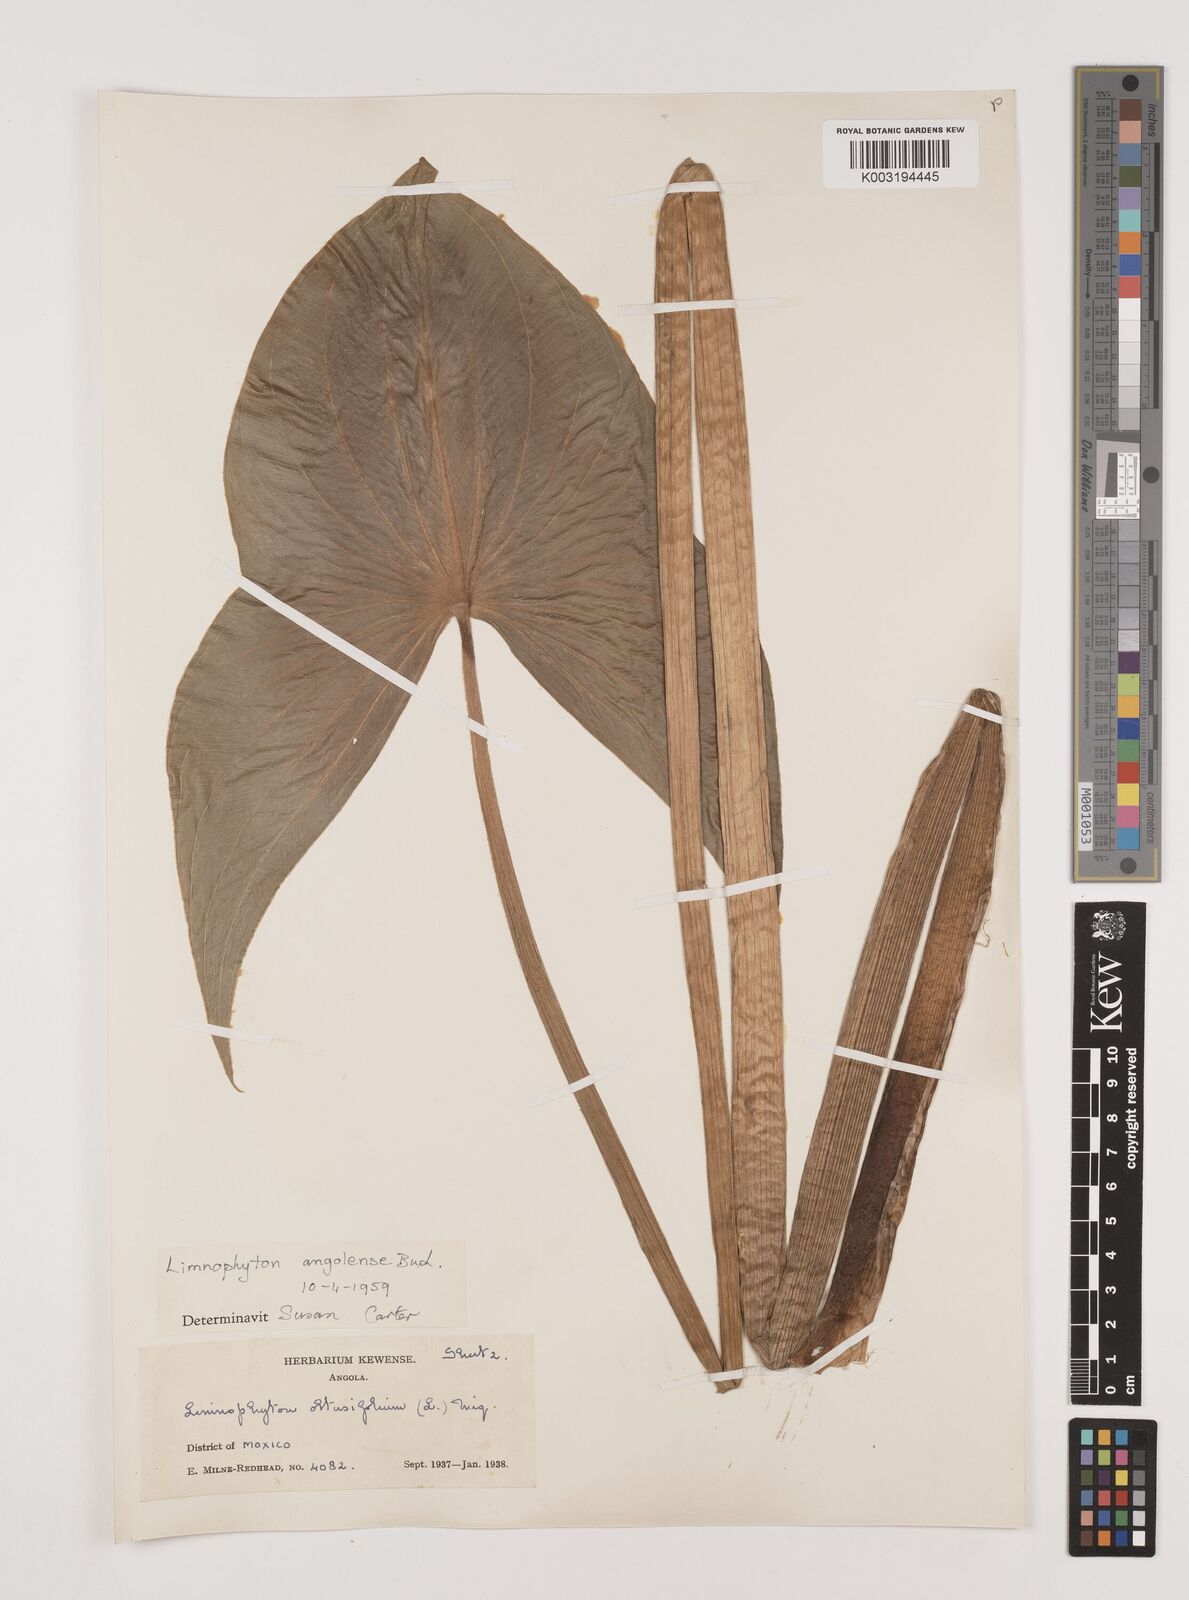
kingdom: Plantae
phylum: Tracheophyta
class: Liliopsida
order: Alismatales
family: Alismataceae
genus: Limnophyton
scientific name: Limnophyton angolense
